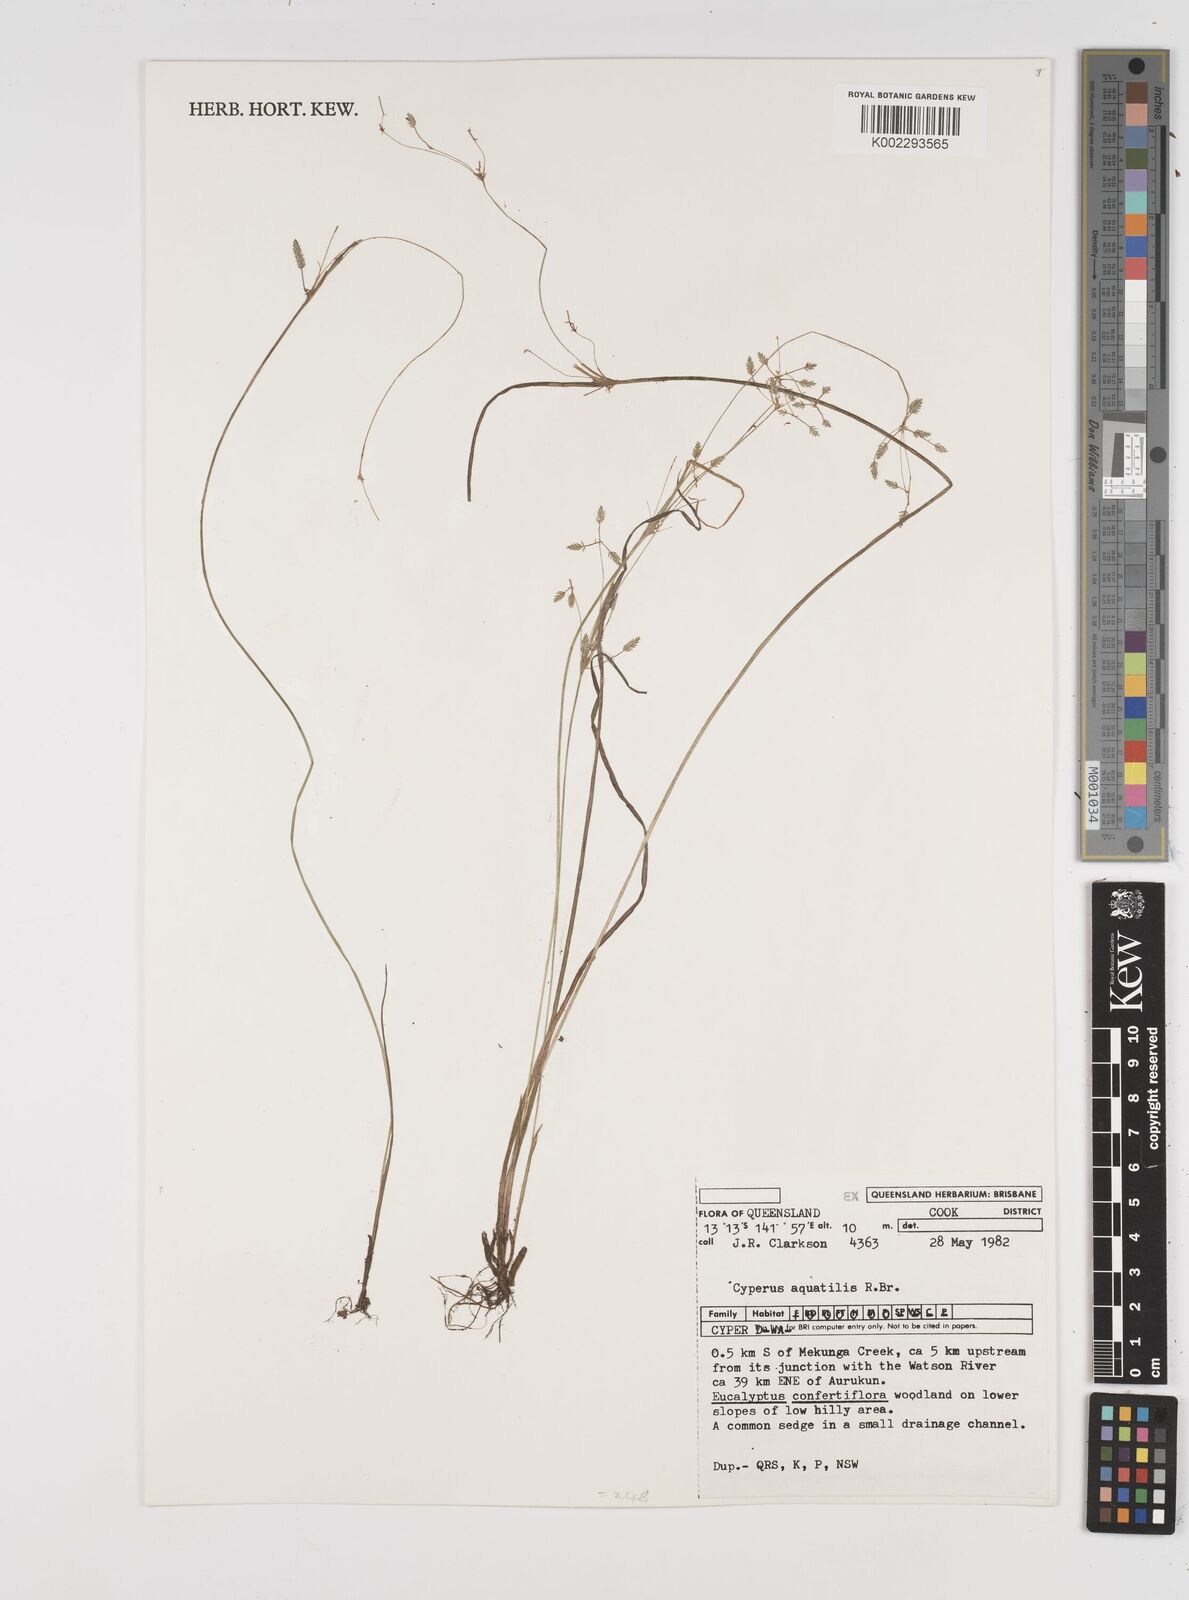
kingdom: Plantae
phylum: Tracheophyta
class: Liliopsida
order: Poales
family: Cyperaceae
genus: Cyperus
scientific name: Cyperus aquatilis
